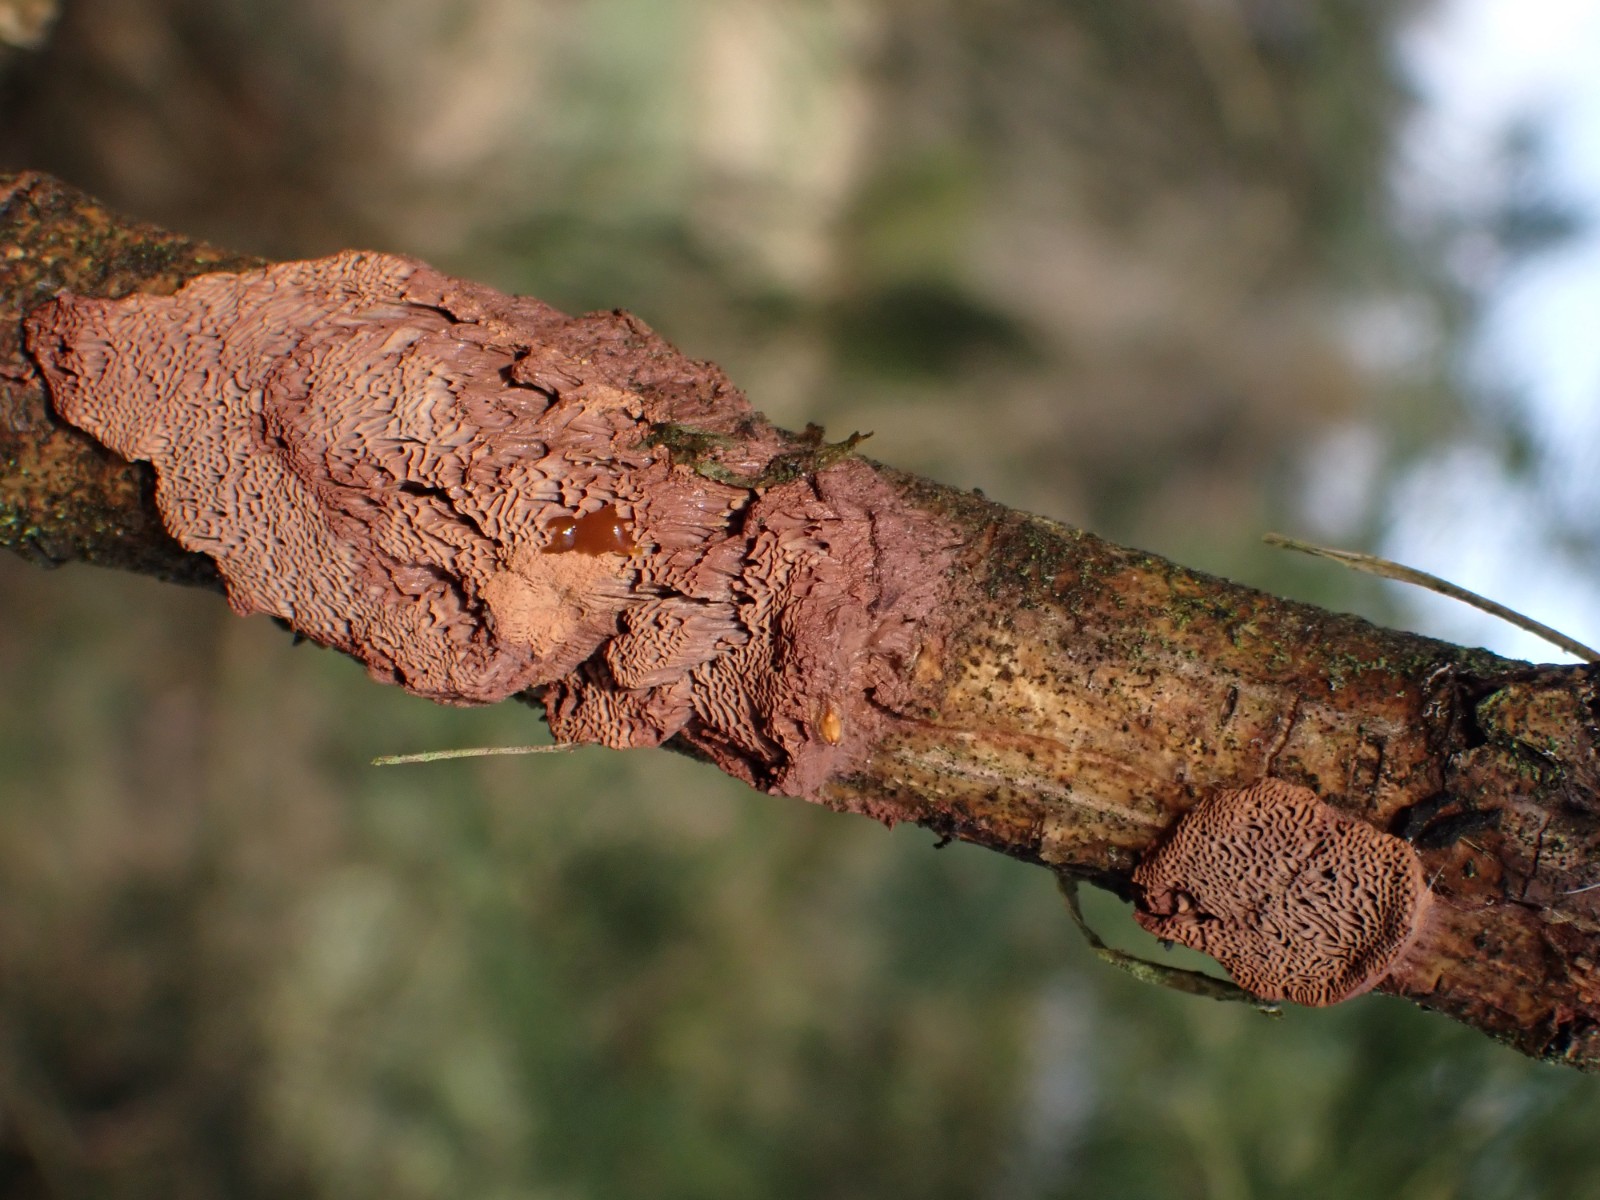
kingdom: Fungi
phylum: Basidiomycota
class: Agaricomycetes
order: Polyporales
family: Phanerochaetaceae
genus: Hapalopilus
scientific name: Hapalopilus rutilans
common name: rødlig okkerporesvamp
